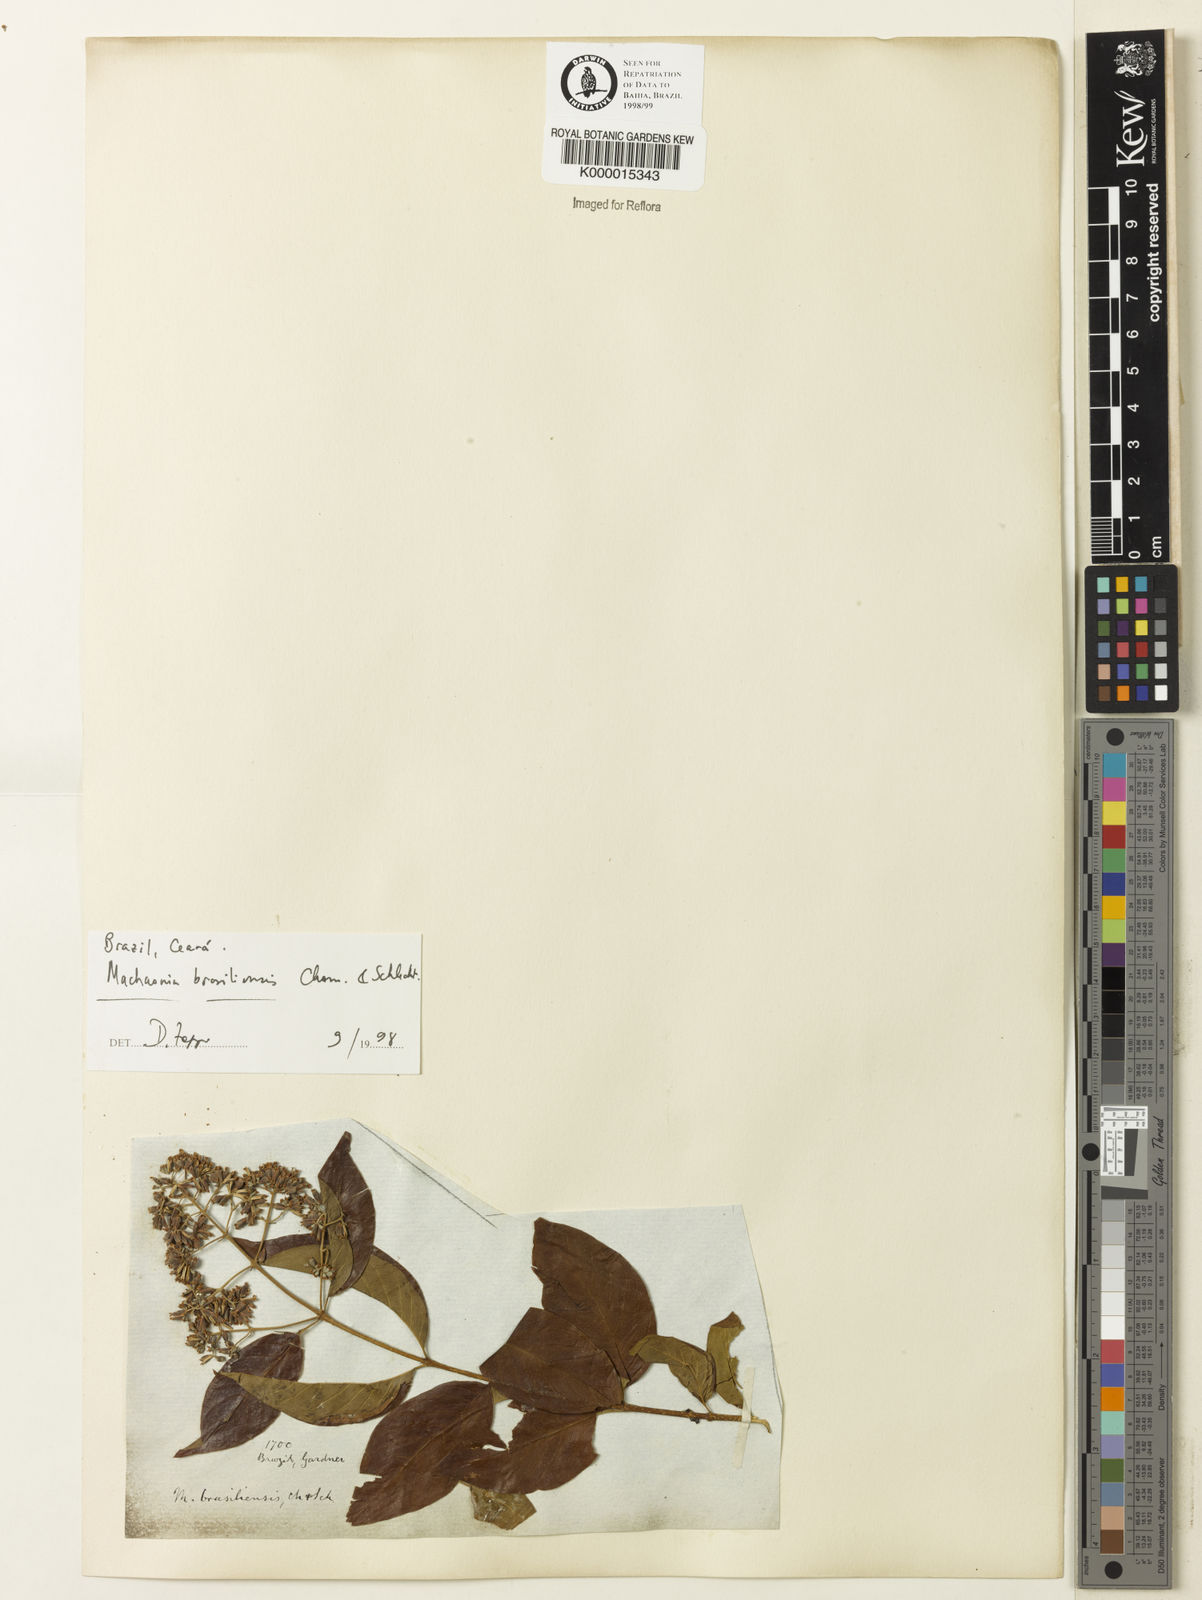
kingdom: Plantae
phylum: Tracheophyta
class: Magnoliopsida
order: Gentianales
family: Rubiaceae
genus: Machaonia
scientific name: Machaonia brasiliensis
